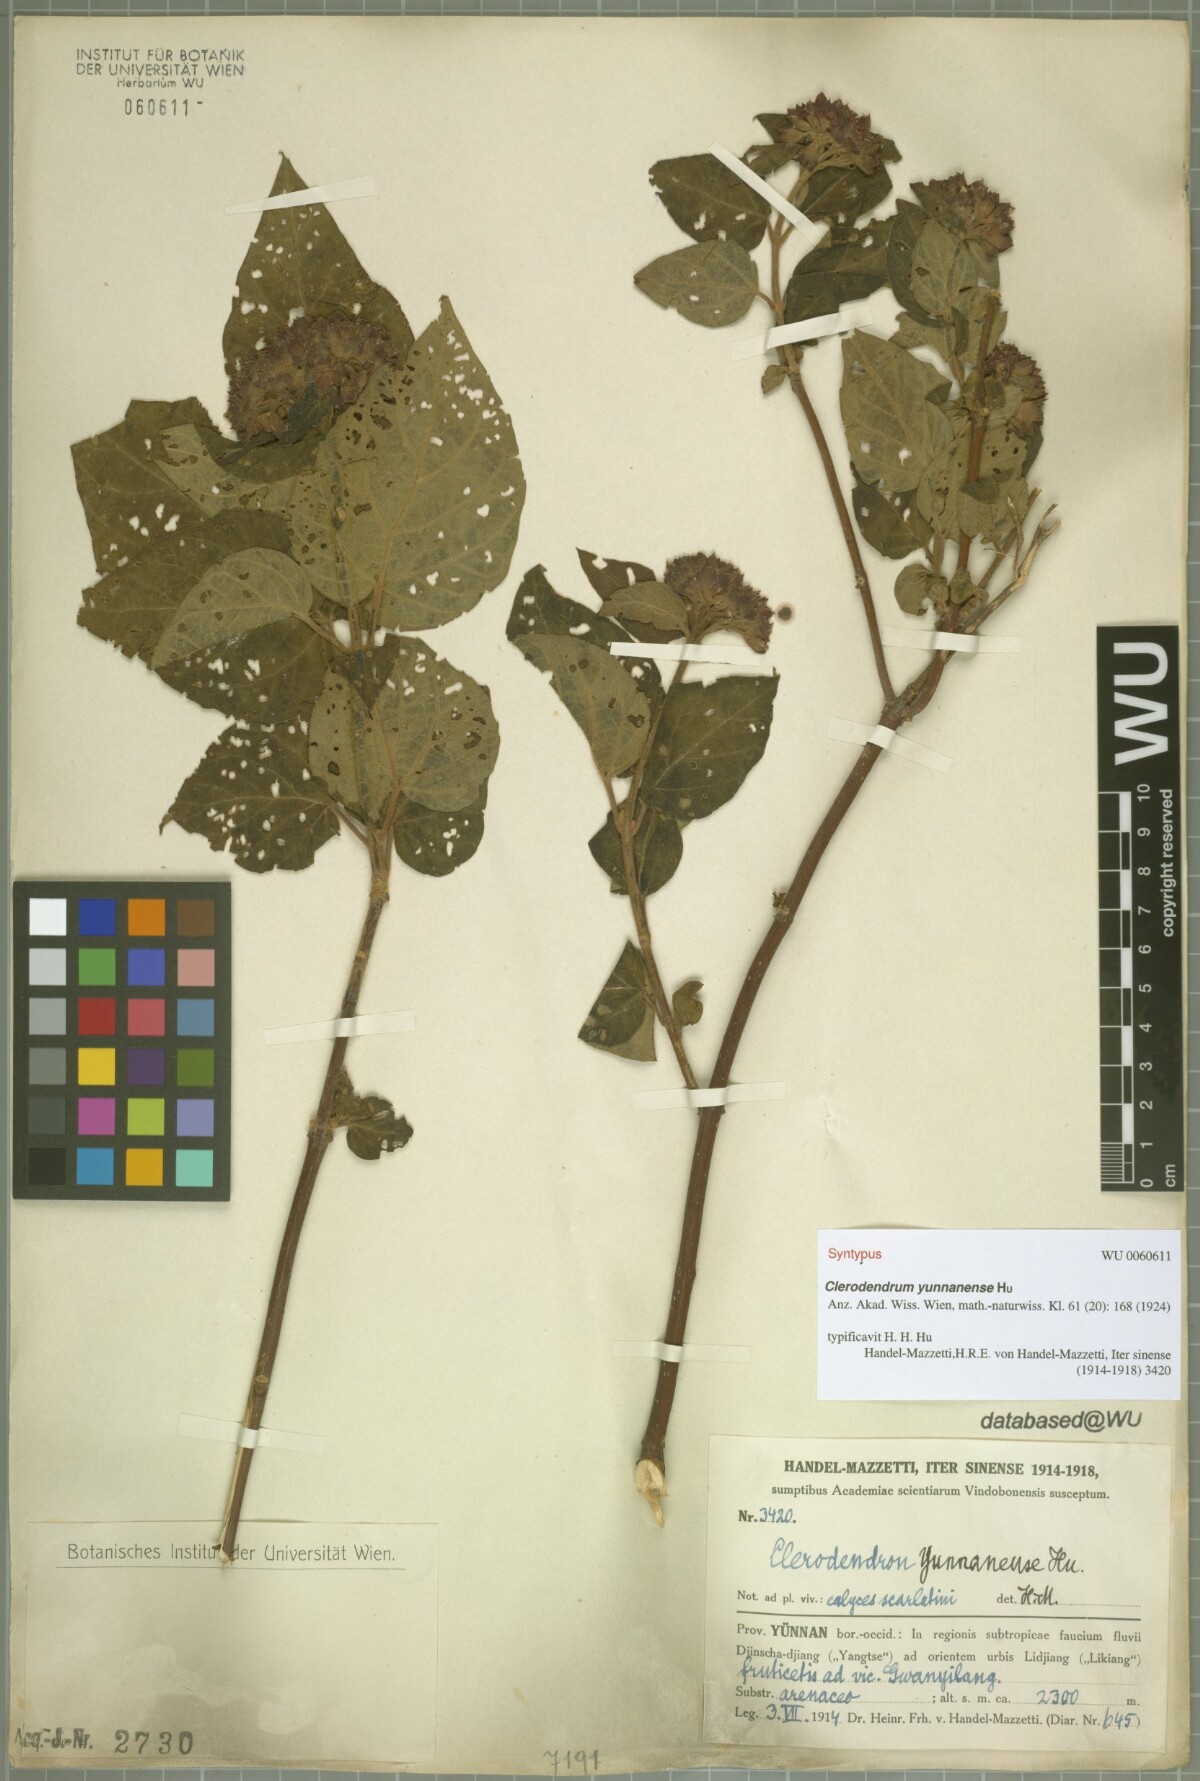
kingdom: Plantae
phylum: Tracheophyta
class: Magnoliopsida
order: Lamiales
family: Lamiaceae
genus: Clerodendrum
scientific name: Clerodendrum yunnanense
